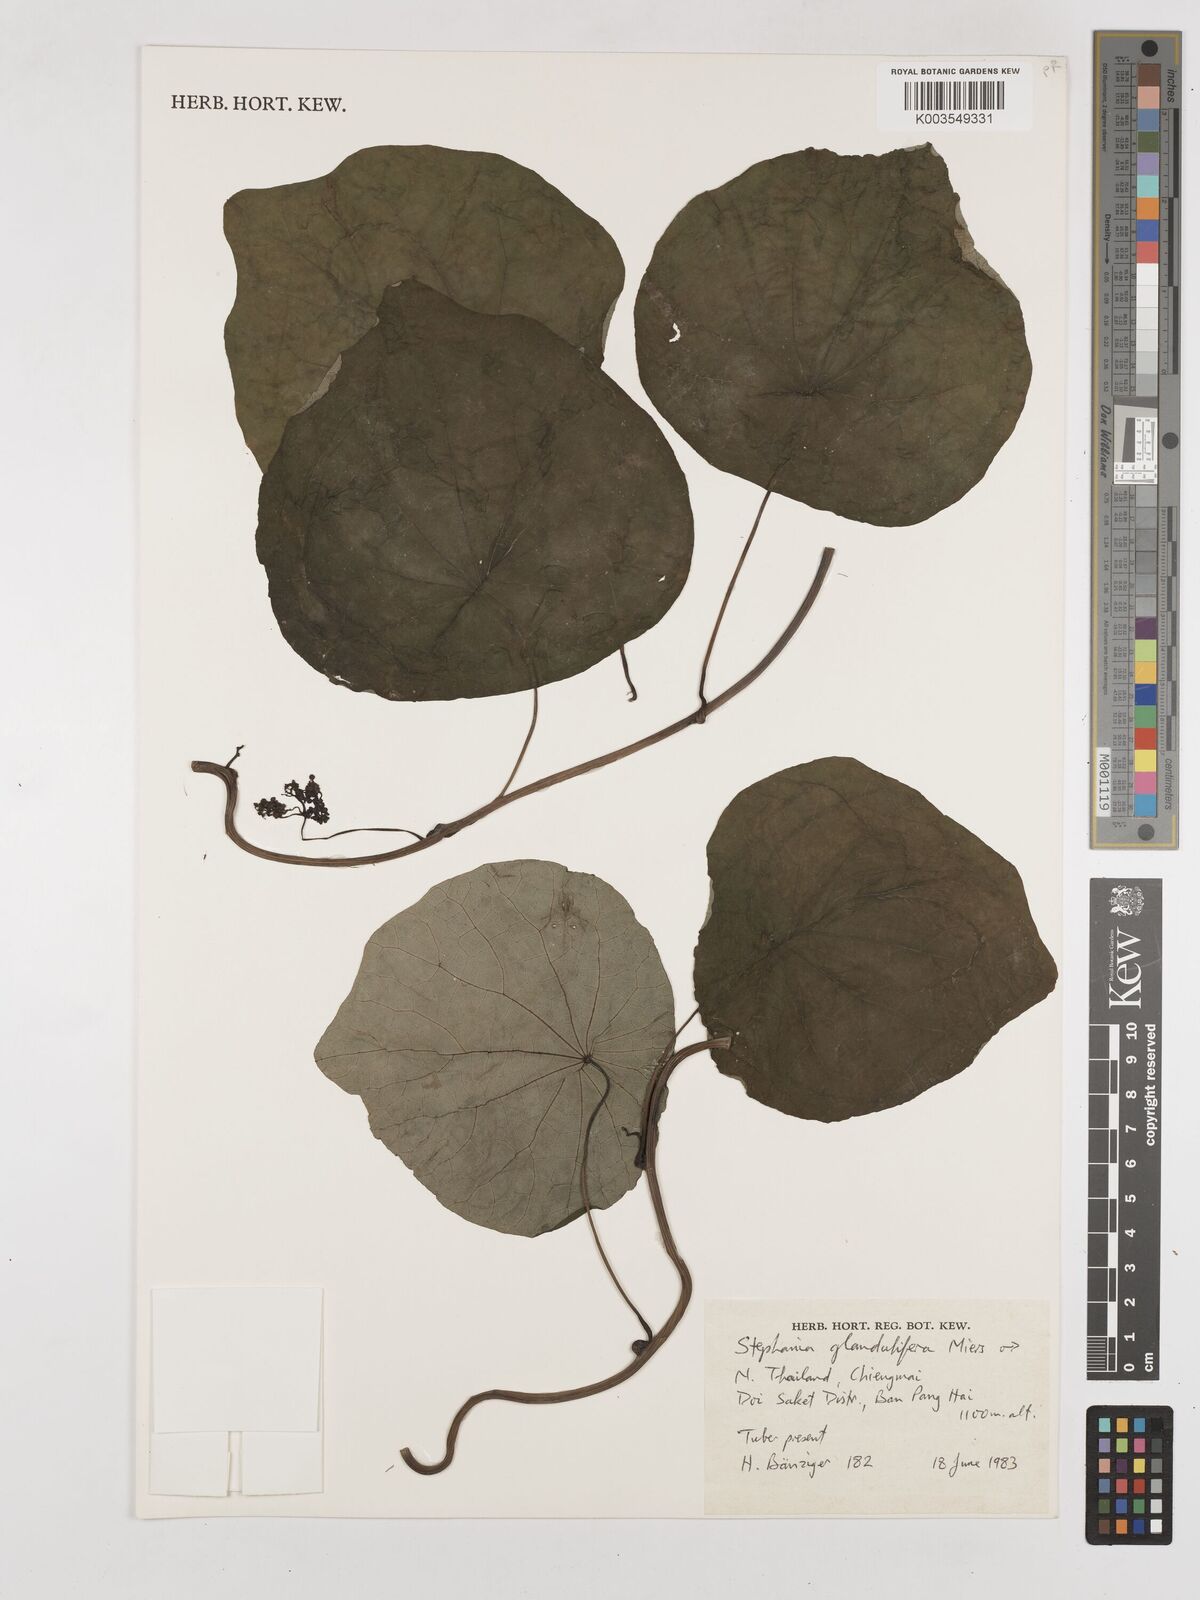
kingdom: Plantae
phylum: Tracheophyta
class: Magnoliopsida
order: Ranunculales
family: Menispermaceae
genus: Stephania
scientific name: Stephania glandulifera
